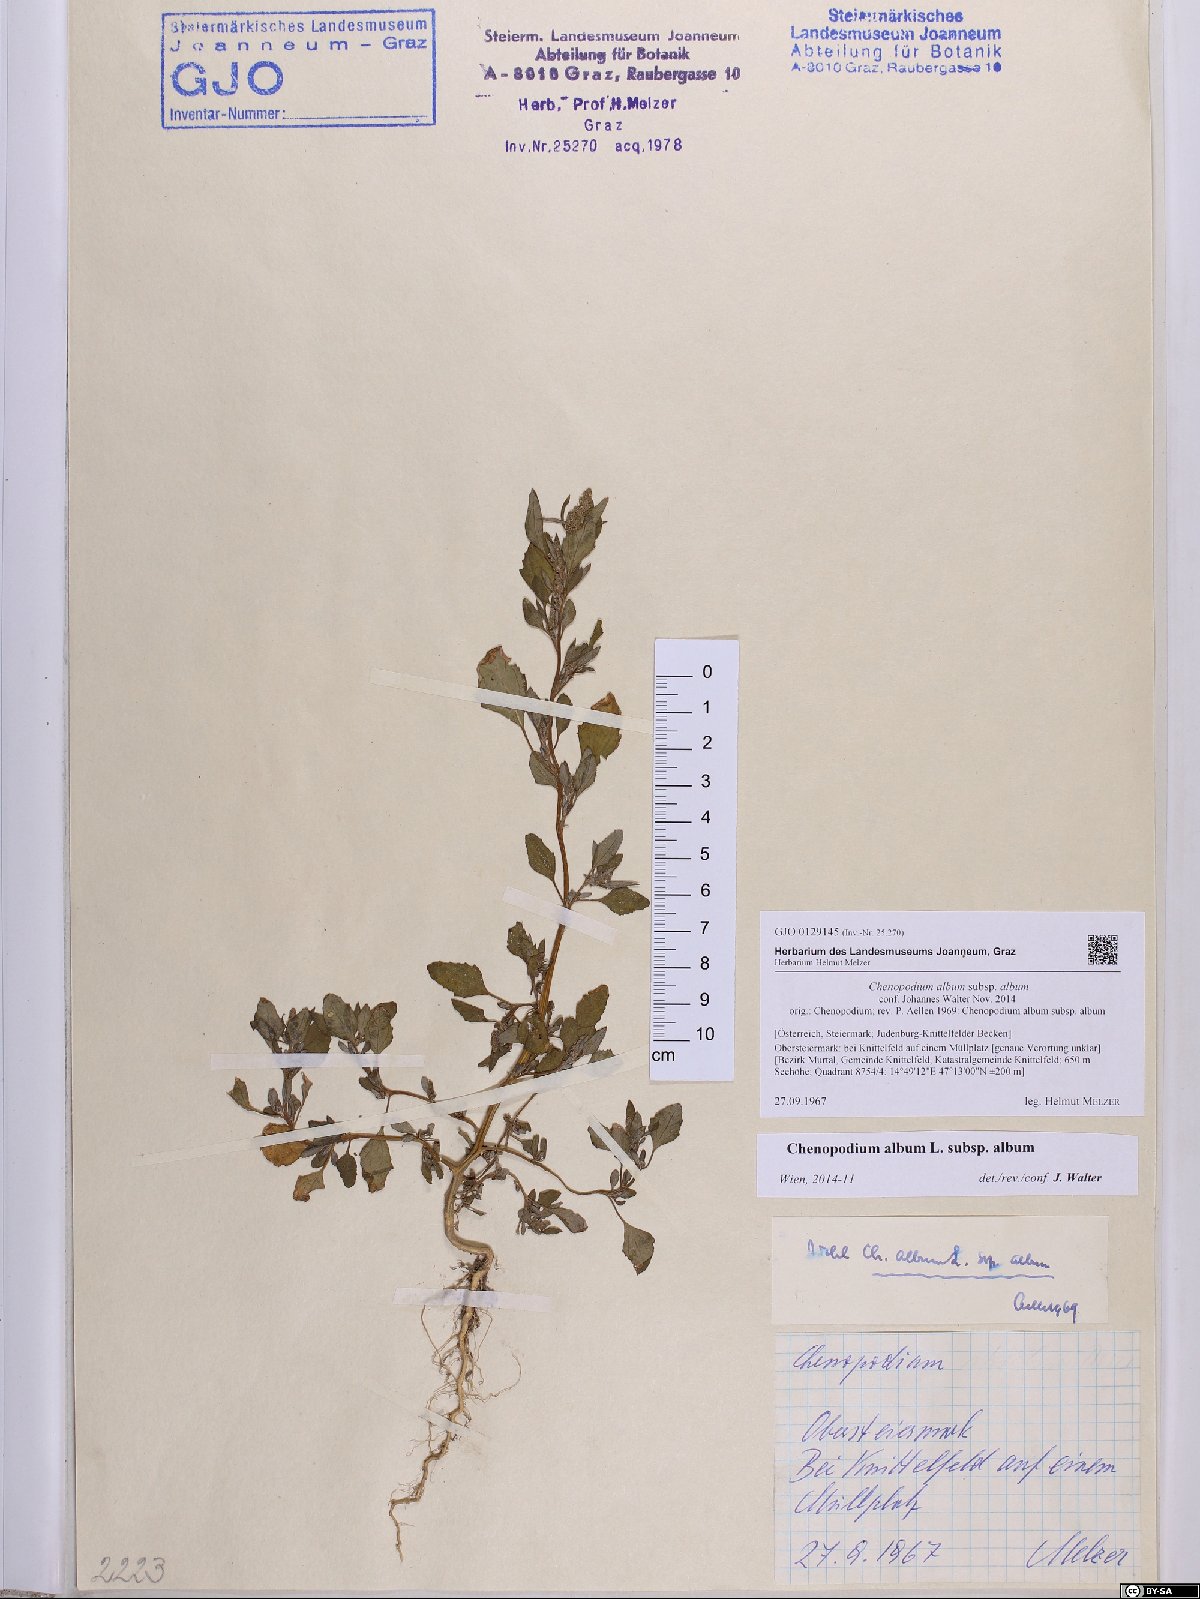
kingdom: Plantae
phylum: Tracheophyta
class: Magnoliopsida
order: Caryophyllales
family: Amaranthaceae
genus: Chenopodium
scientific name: Chenopodium album
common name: Fat-hen
